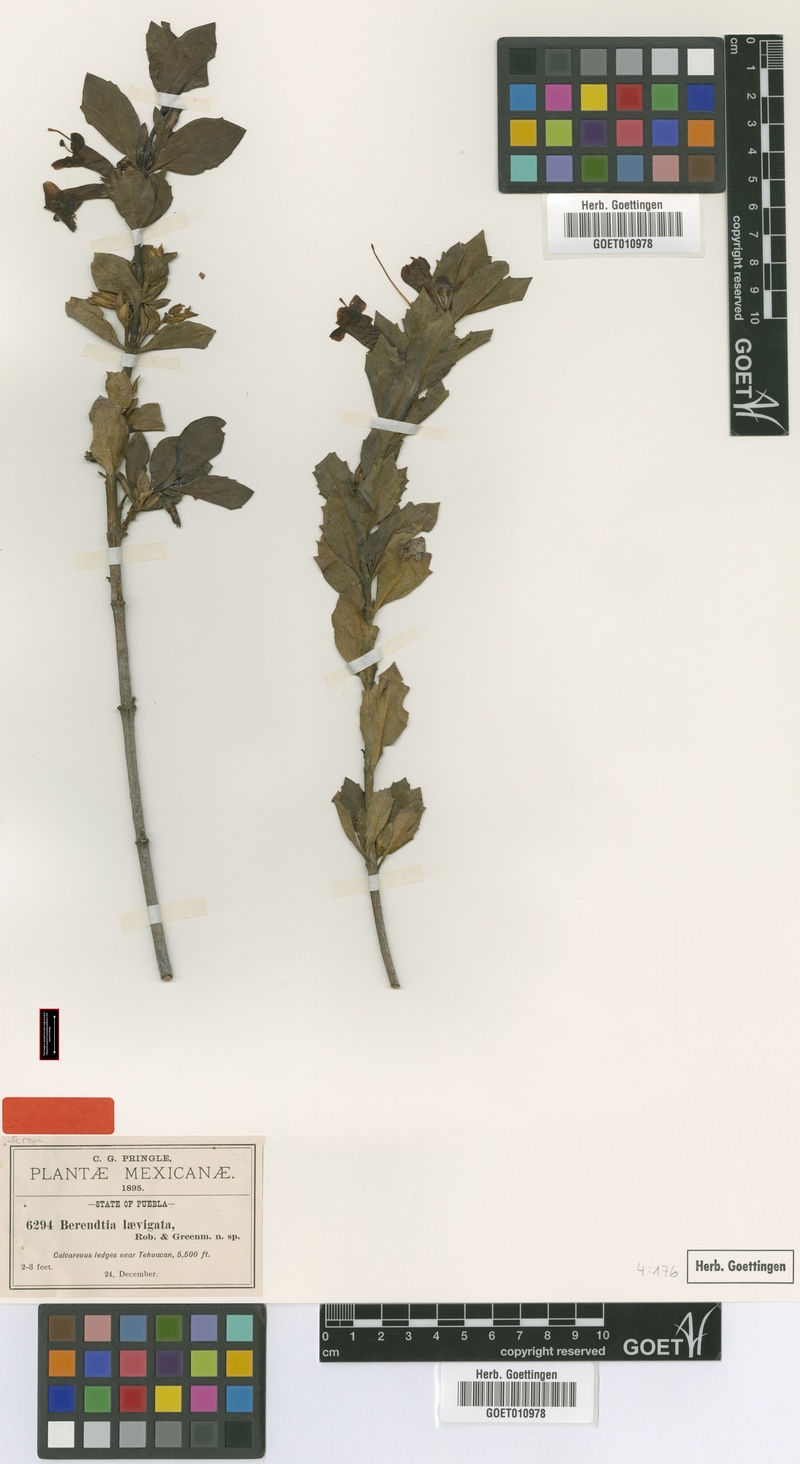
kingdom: Plantae
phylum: Tracheophyta
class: Magnoliopsida
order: Lamiales
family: Phrymaceae
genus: Hemichaena
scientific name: Hemichaena levigata
